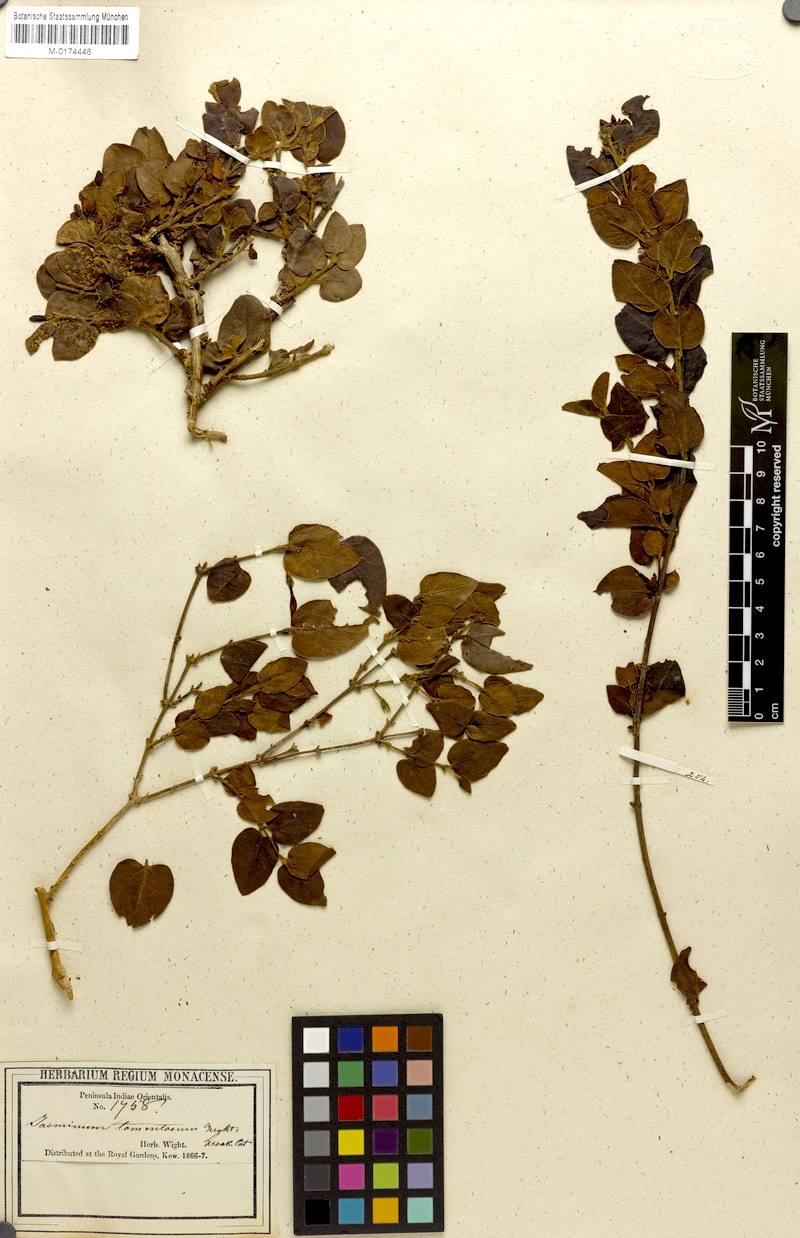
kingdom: Plantae
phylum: Tracheophyta
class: Magnoliopsida
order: Lamiales
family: Oleaceae
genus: Jasminum
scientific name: Jasminum
